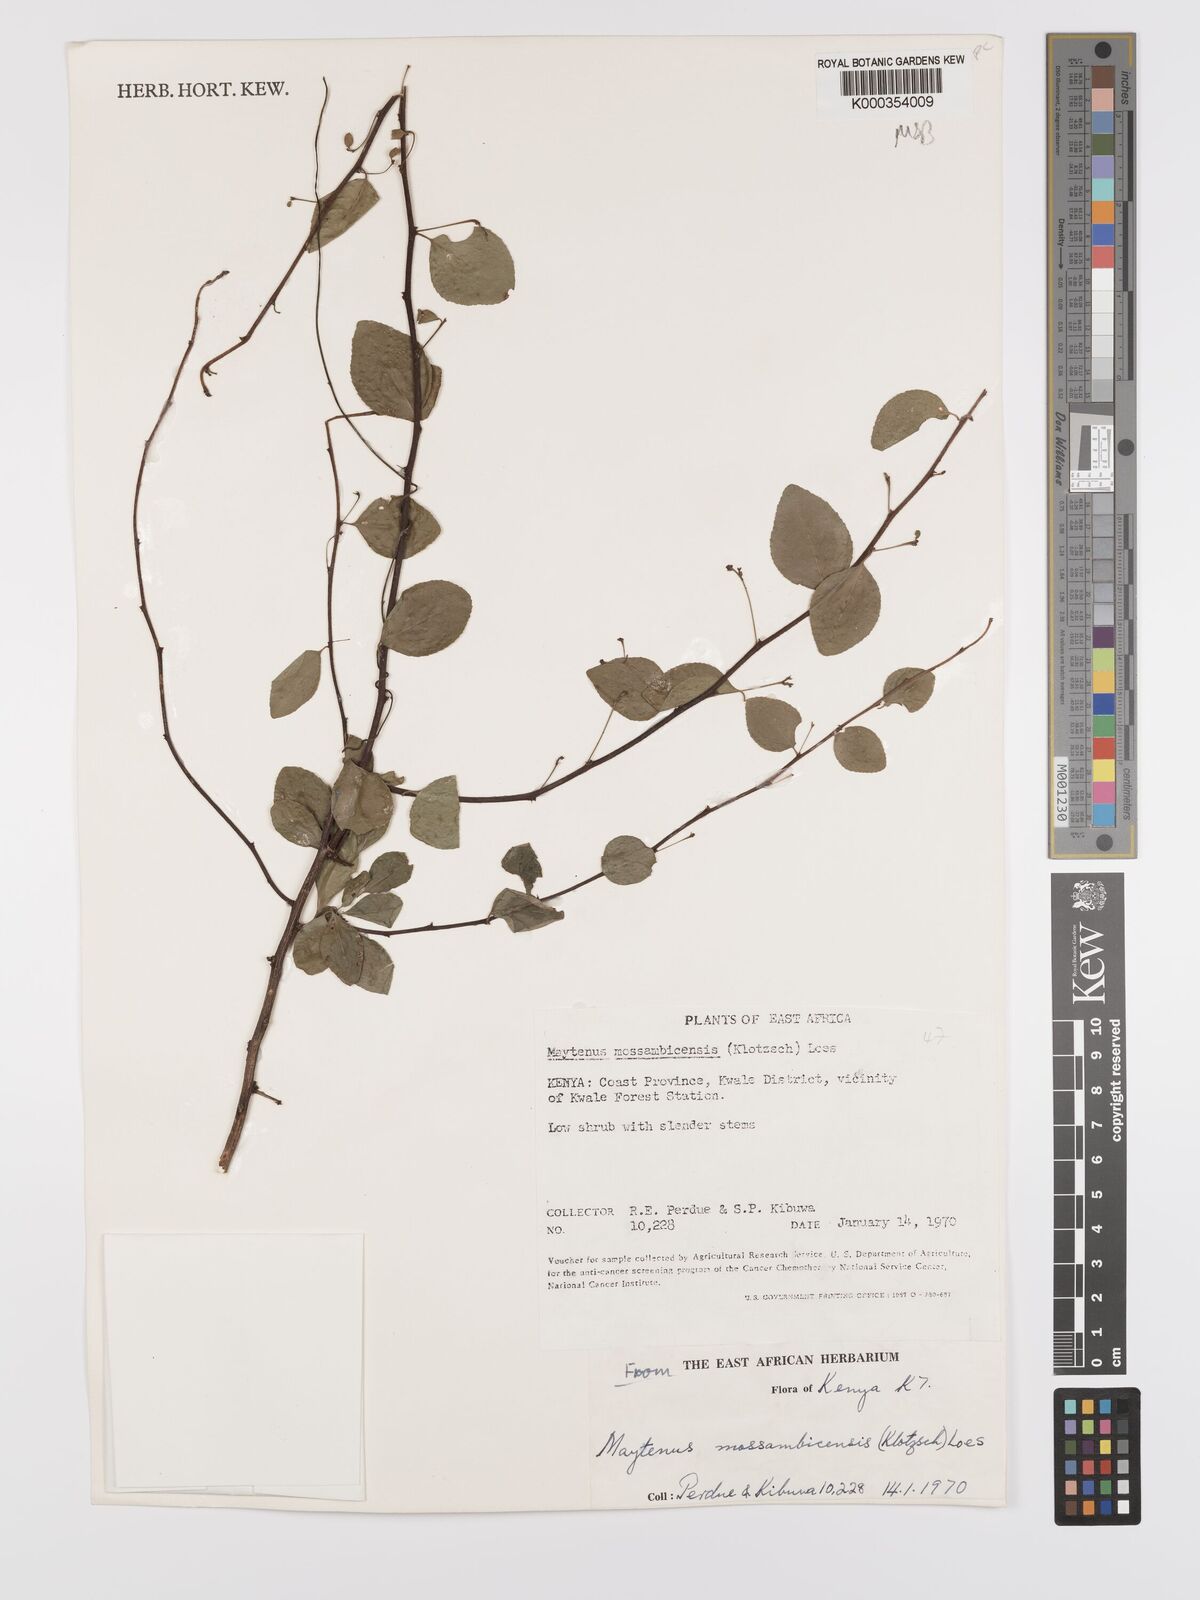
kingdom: Plantae
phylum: Tracheophyta
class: Magnoliopsida
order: Celastrales
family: Celastraceae
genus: Gymnosporia
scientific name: Gymnosporia mossambicensis
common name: Black forest spike-thorn
